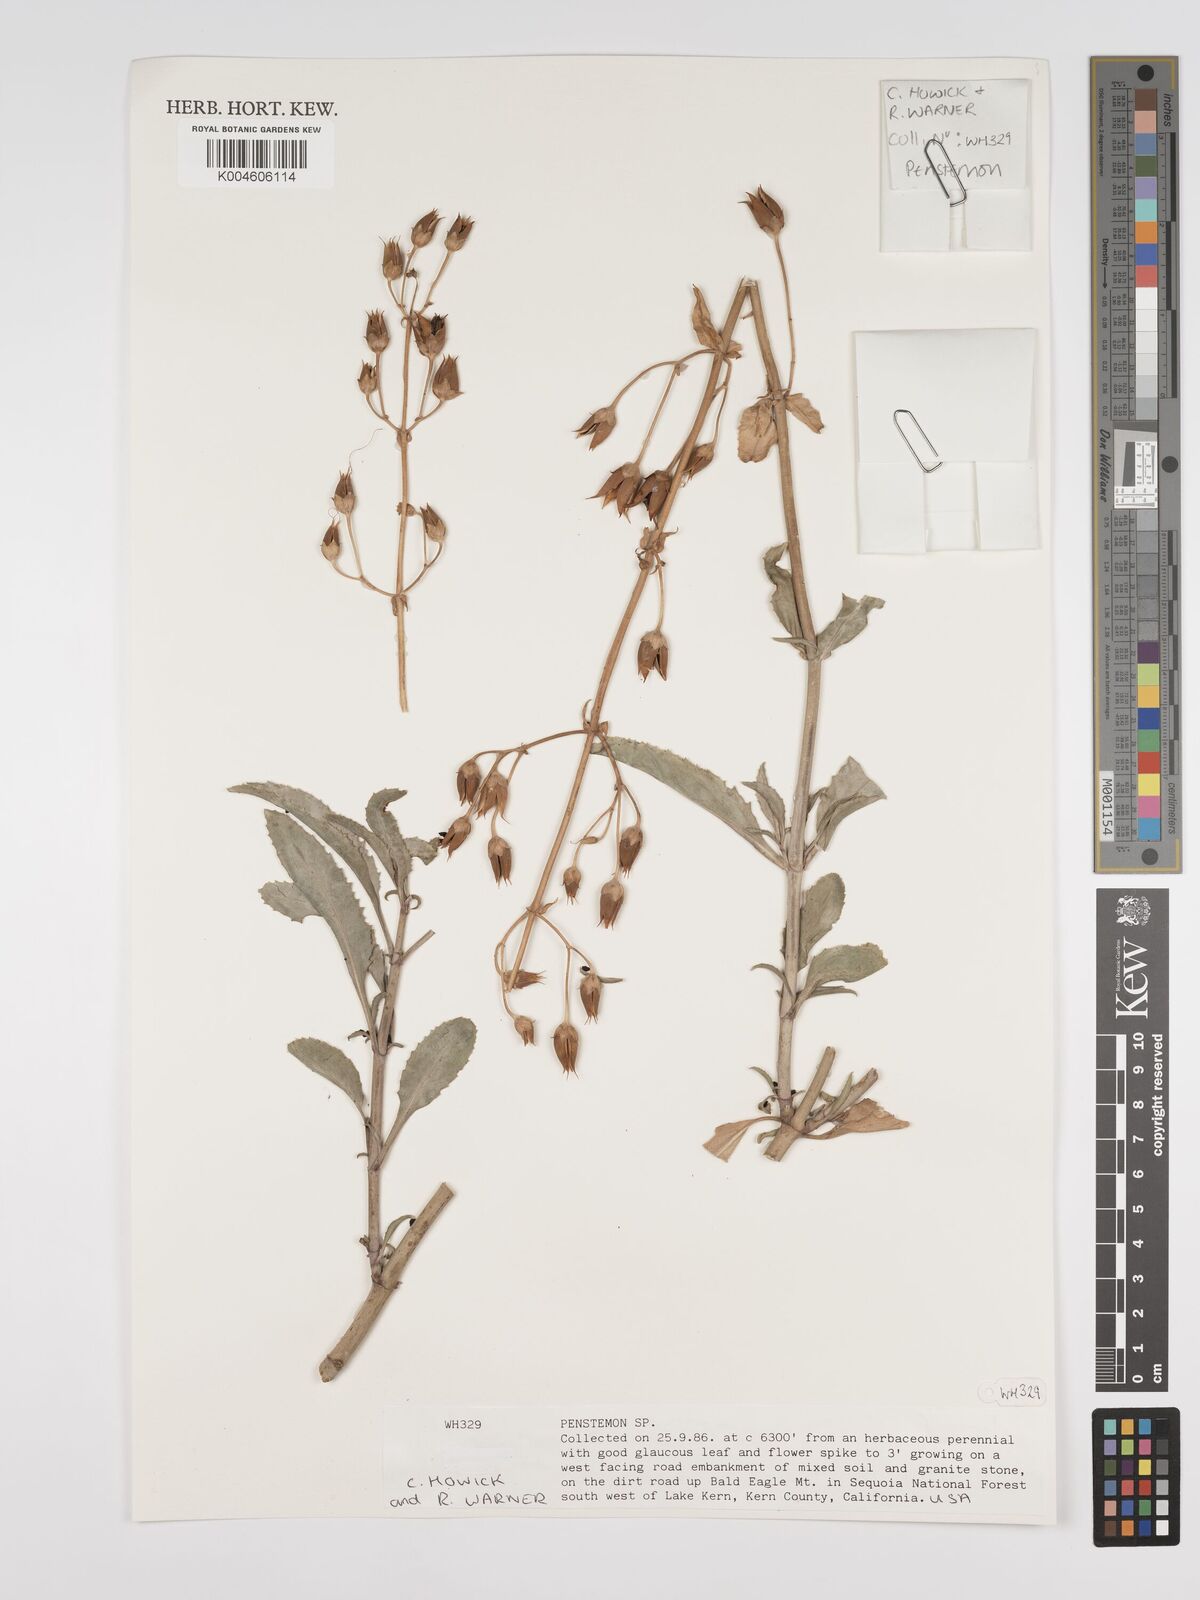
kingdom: Plantae
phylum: Tracheophyta
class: Magnoliopsida
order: Lamiales
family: Plantaginaceae
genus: Penstemon
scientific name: Penstemon
